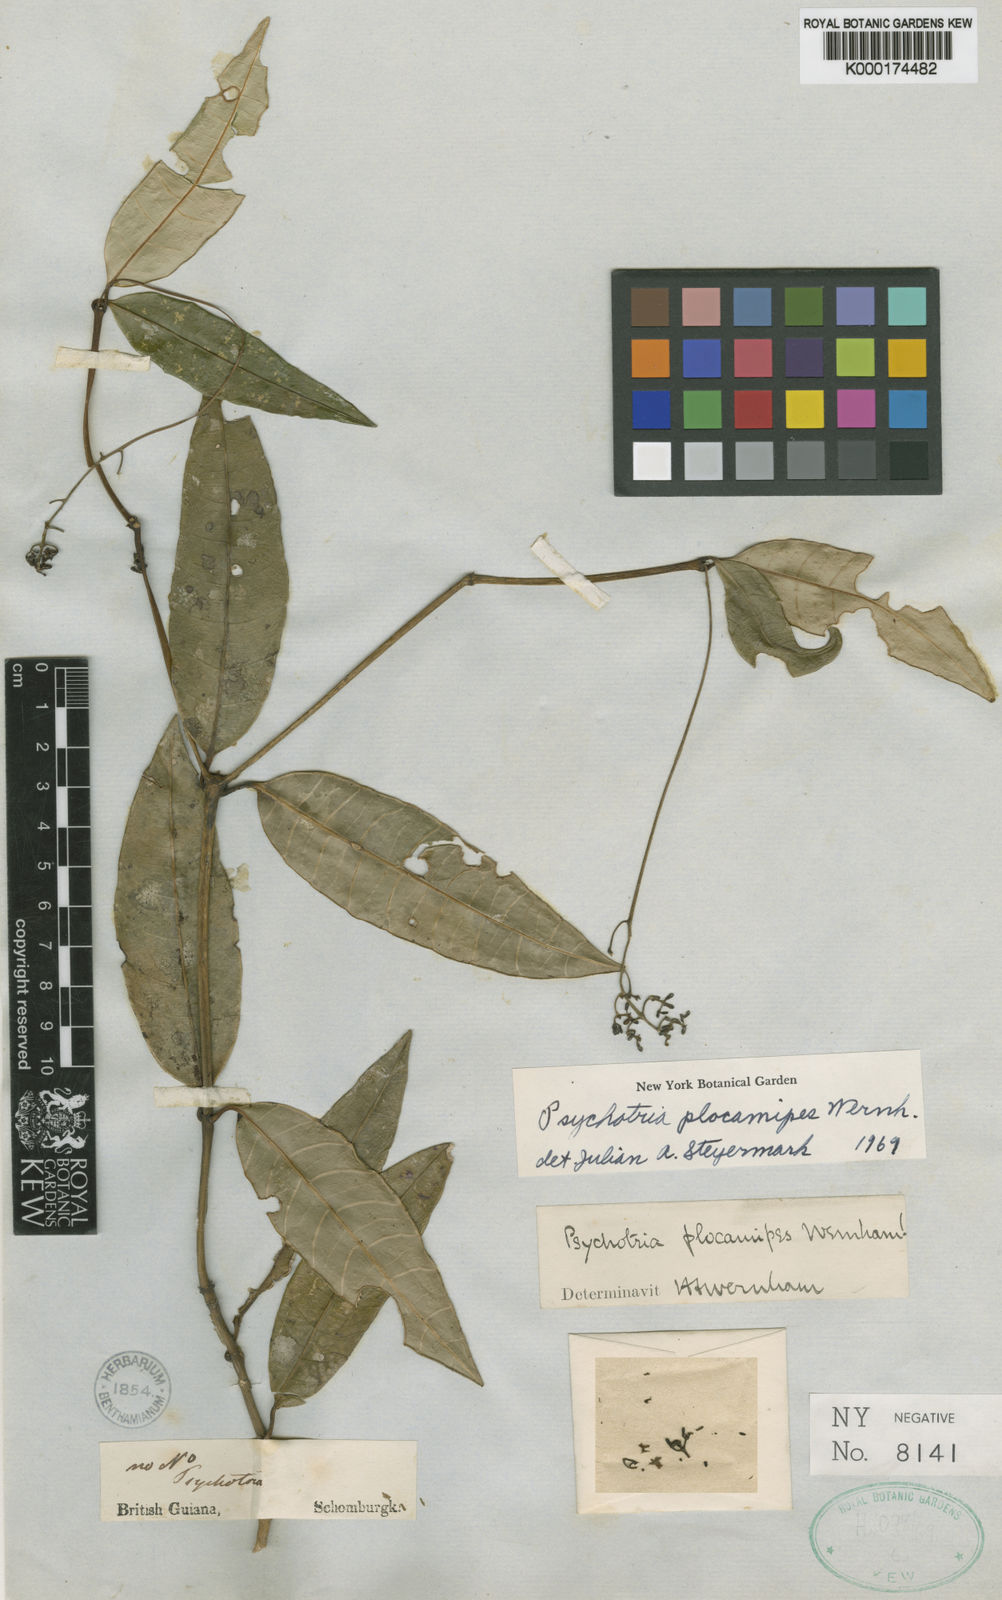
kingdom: Plantae
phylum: Tracheophyta
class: Magnoliopsida
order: Gentianales
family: Rubiaceae
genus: Palicourea
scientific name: Palicourea plocamipes
